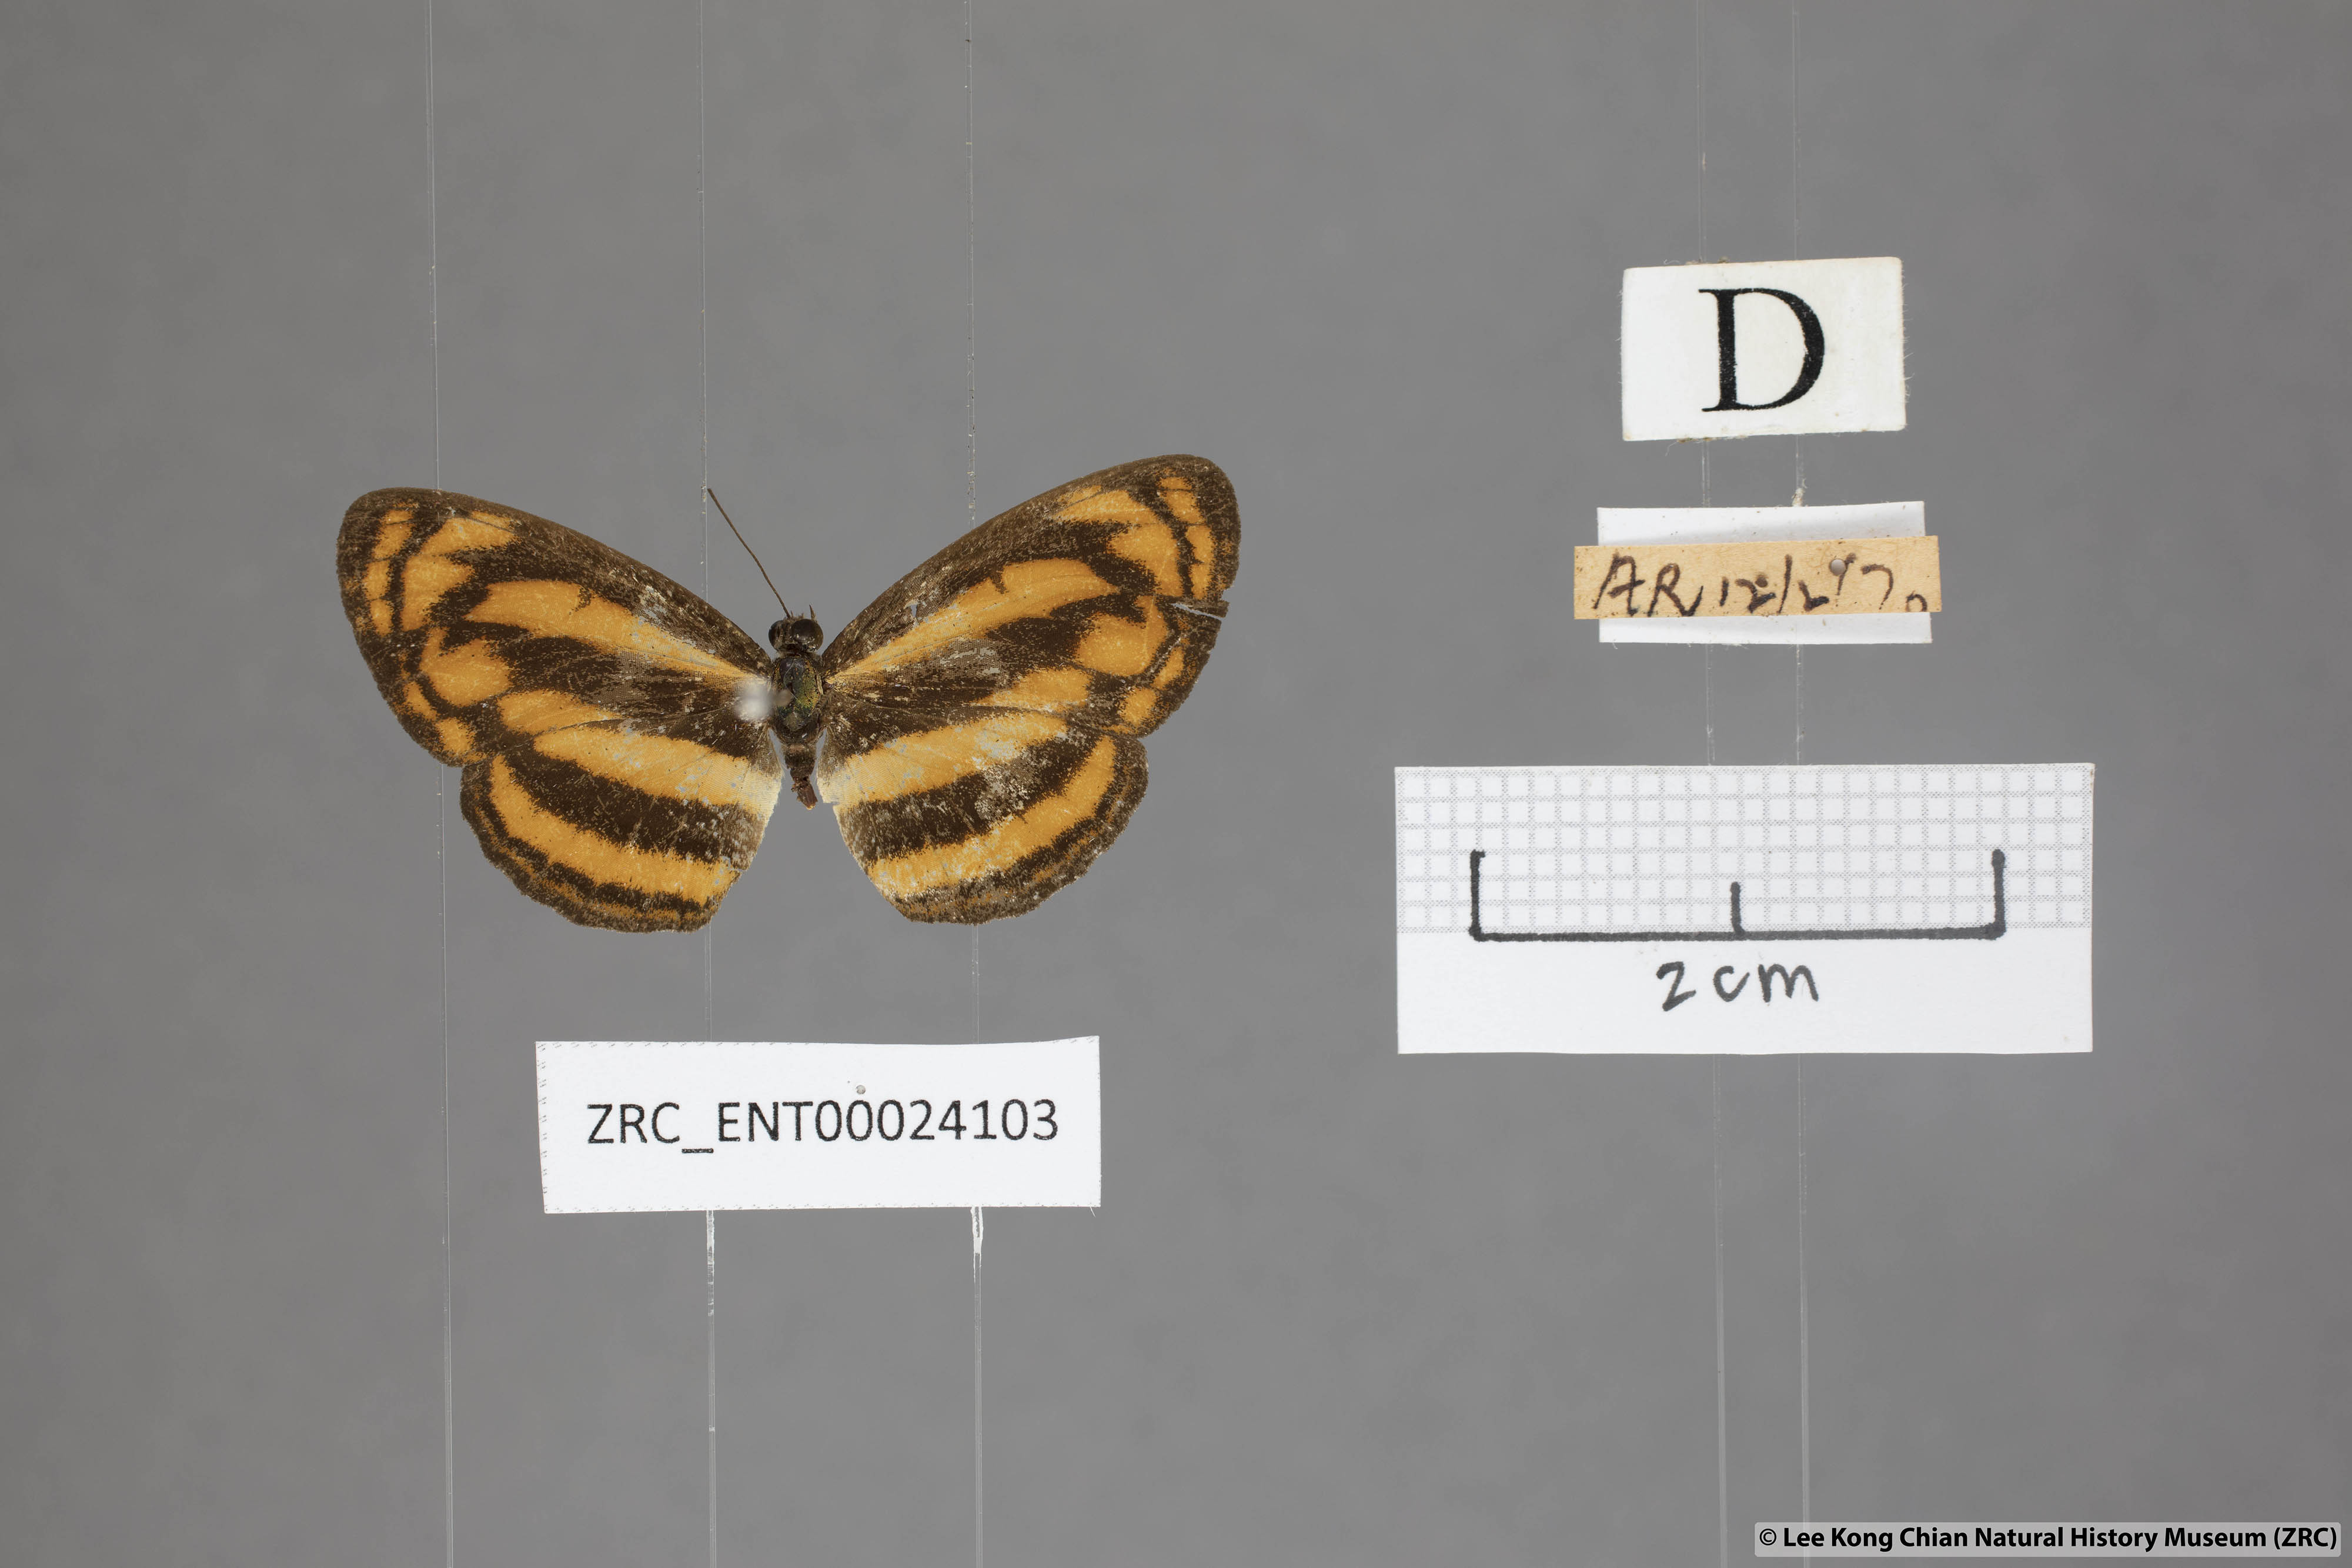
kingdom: Animalia
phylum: Arthropoda
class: Insecta
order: Lepidoptera
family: Nymphalidae
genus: Pantoporia
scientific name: Pantoporia aurelia
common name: Baby lascar
